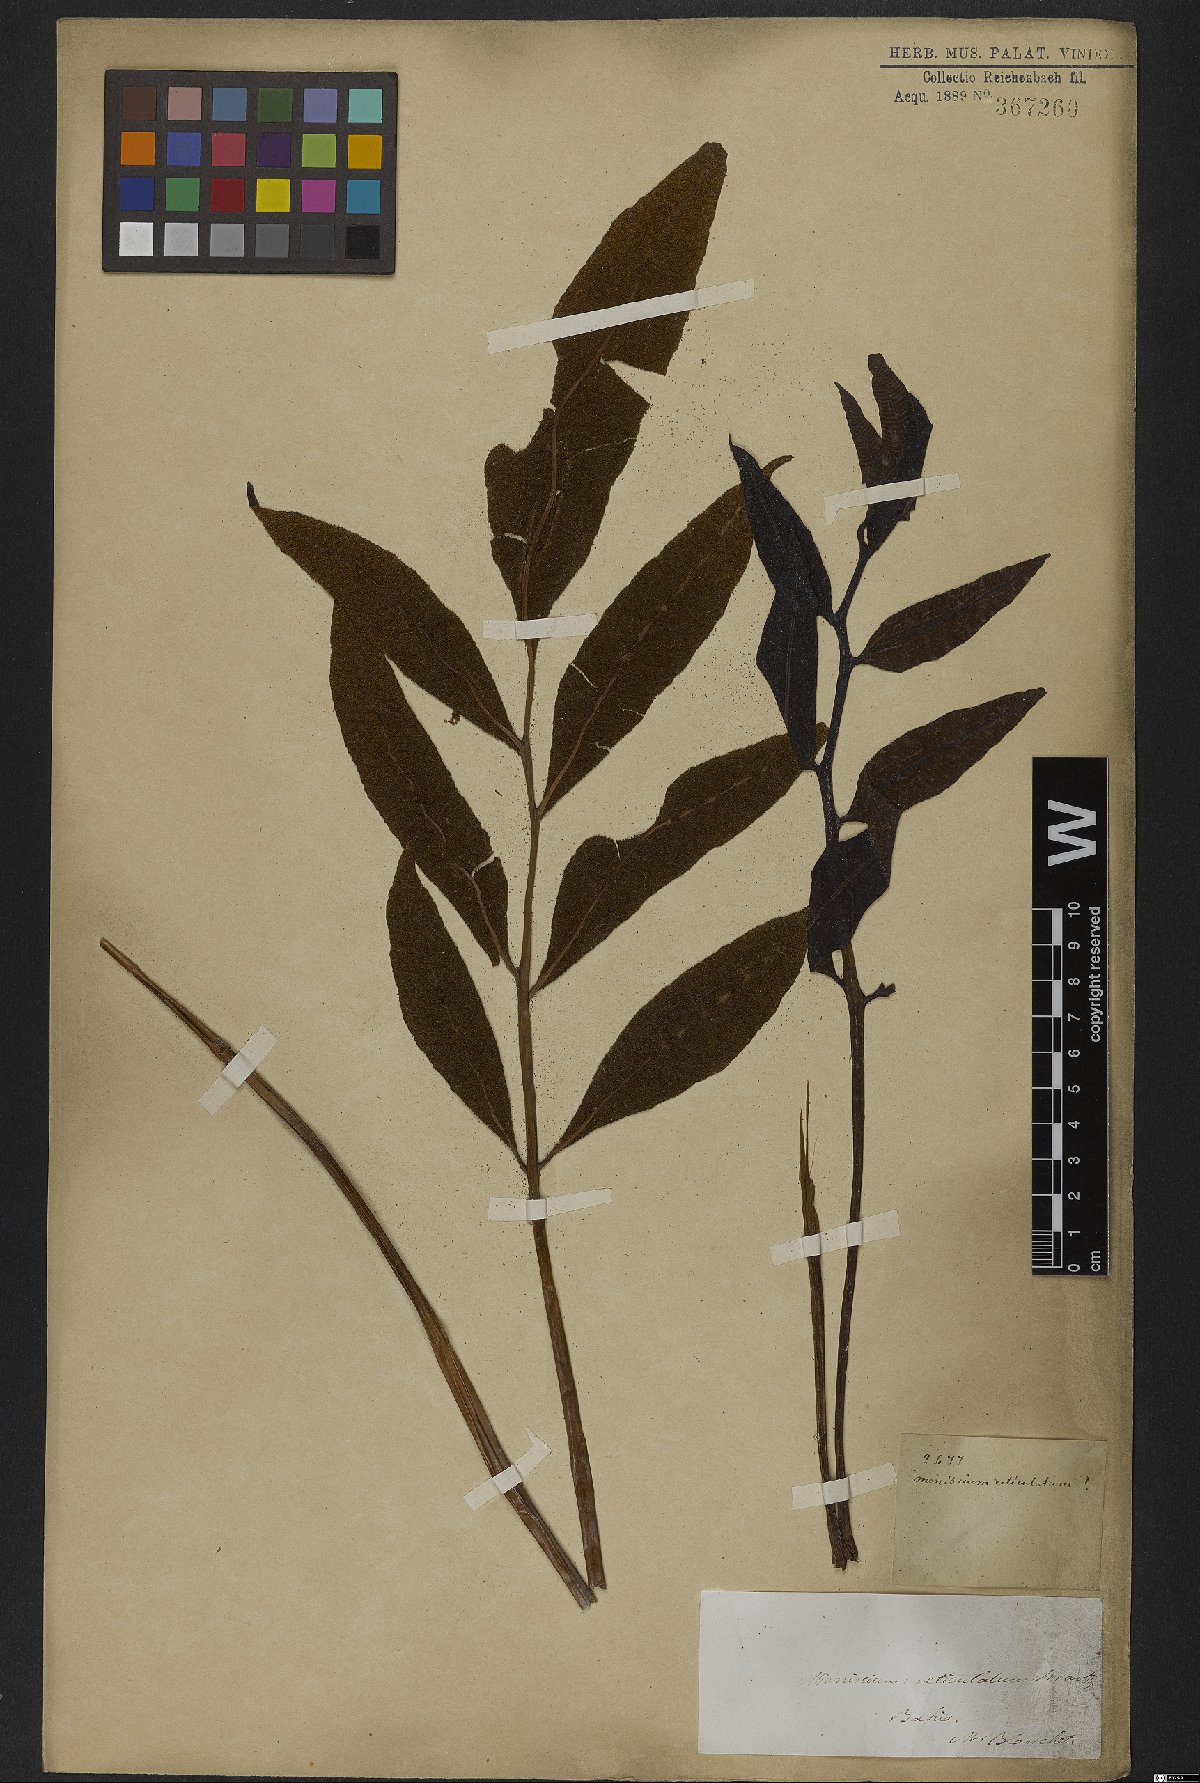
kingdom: Plantae
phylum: Tracheophyta
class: Polypodiopsida
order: Polypodiales
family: Thelypteridaceae
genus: Meniscium
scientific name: Meniscium reticulatum
